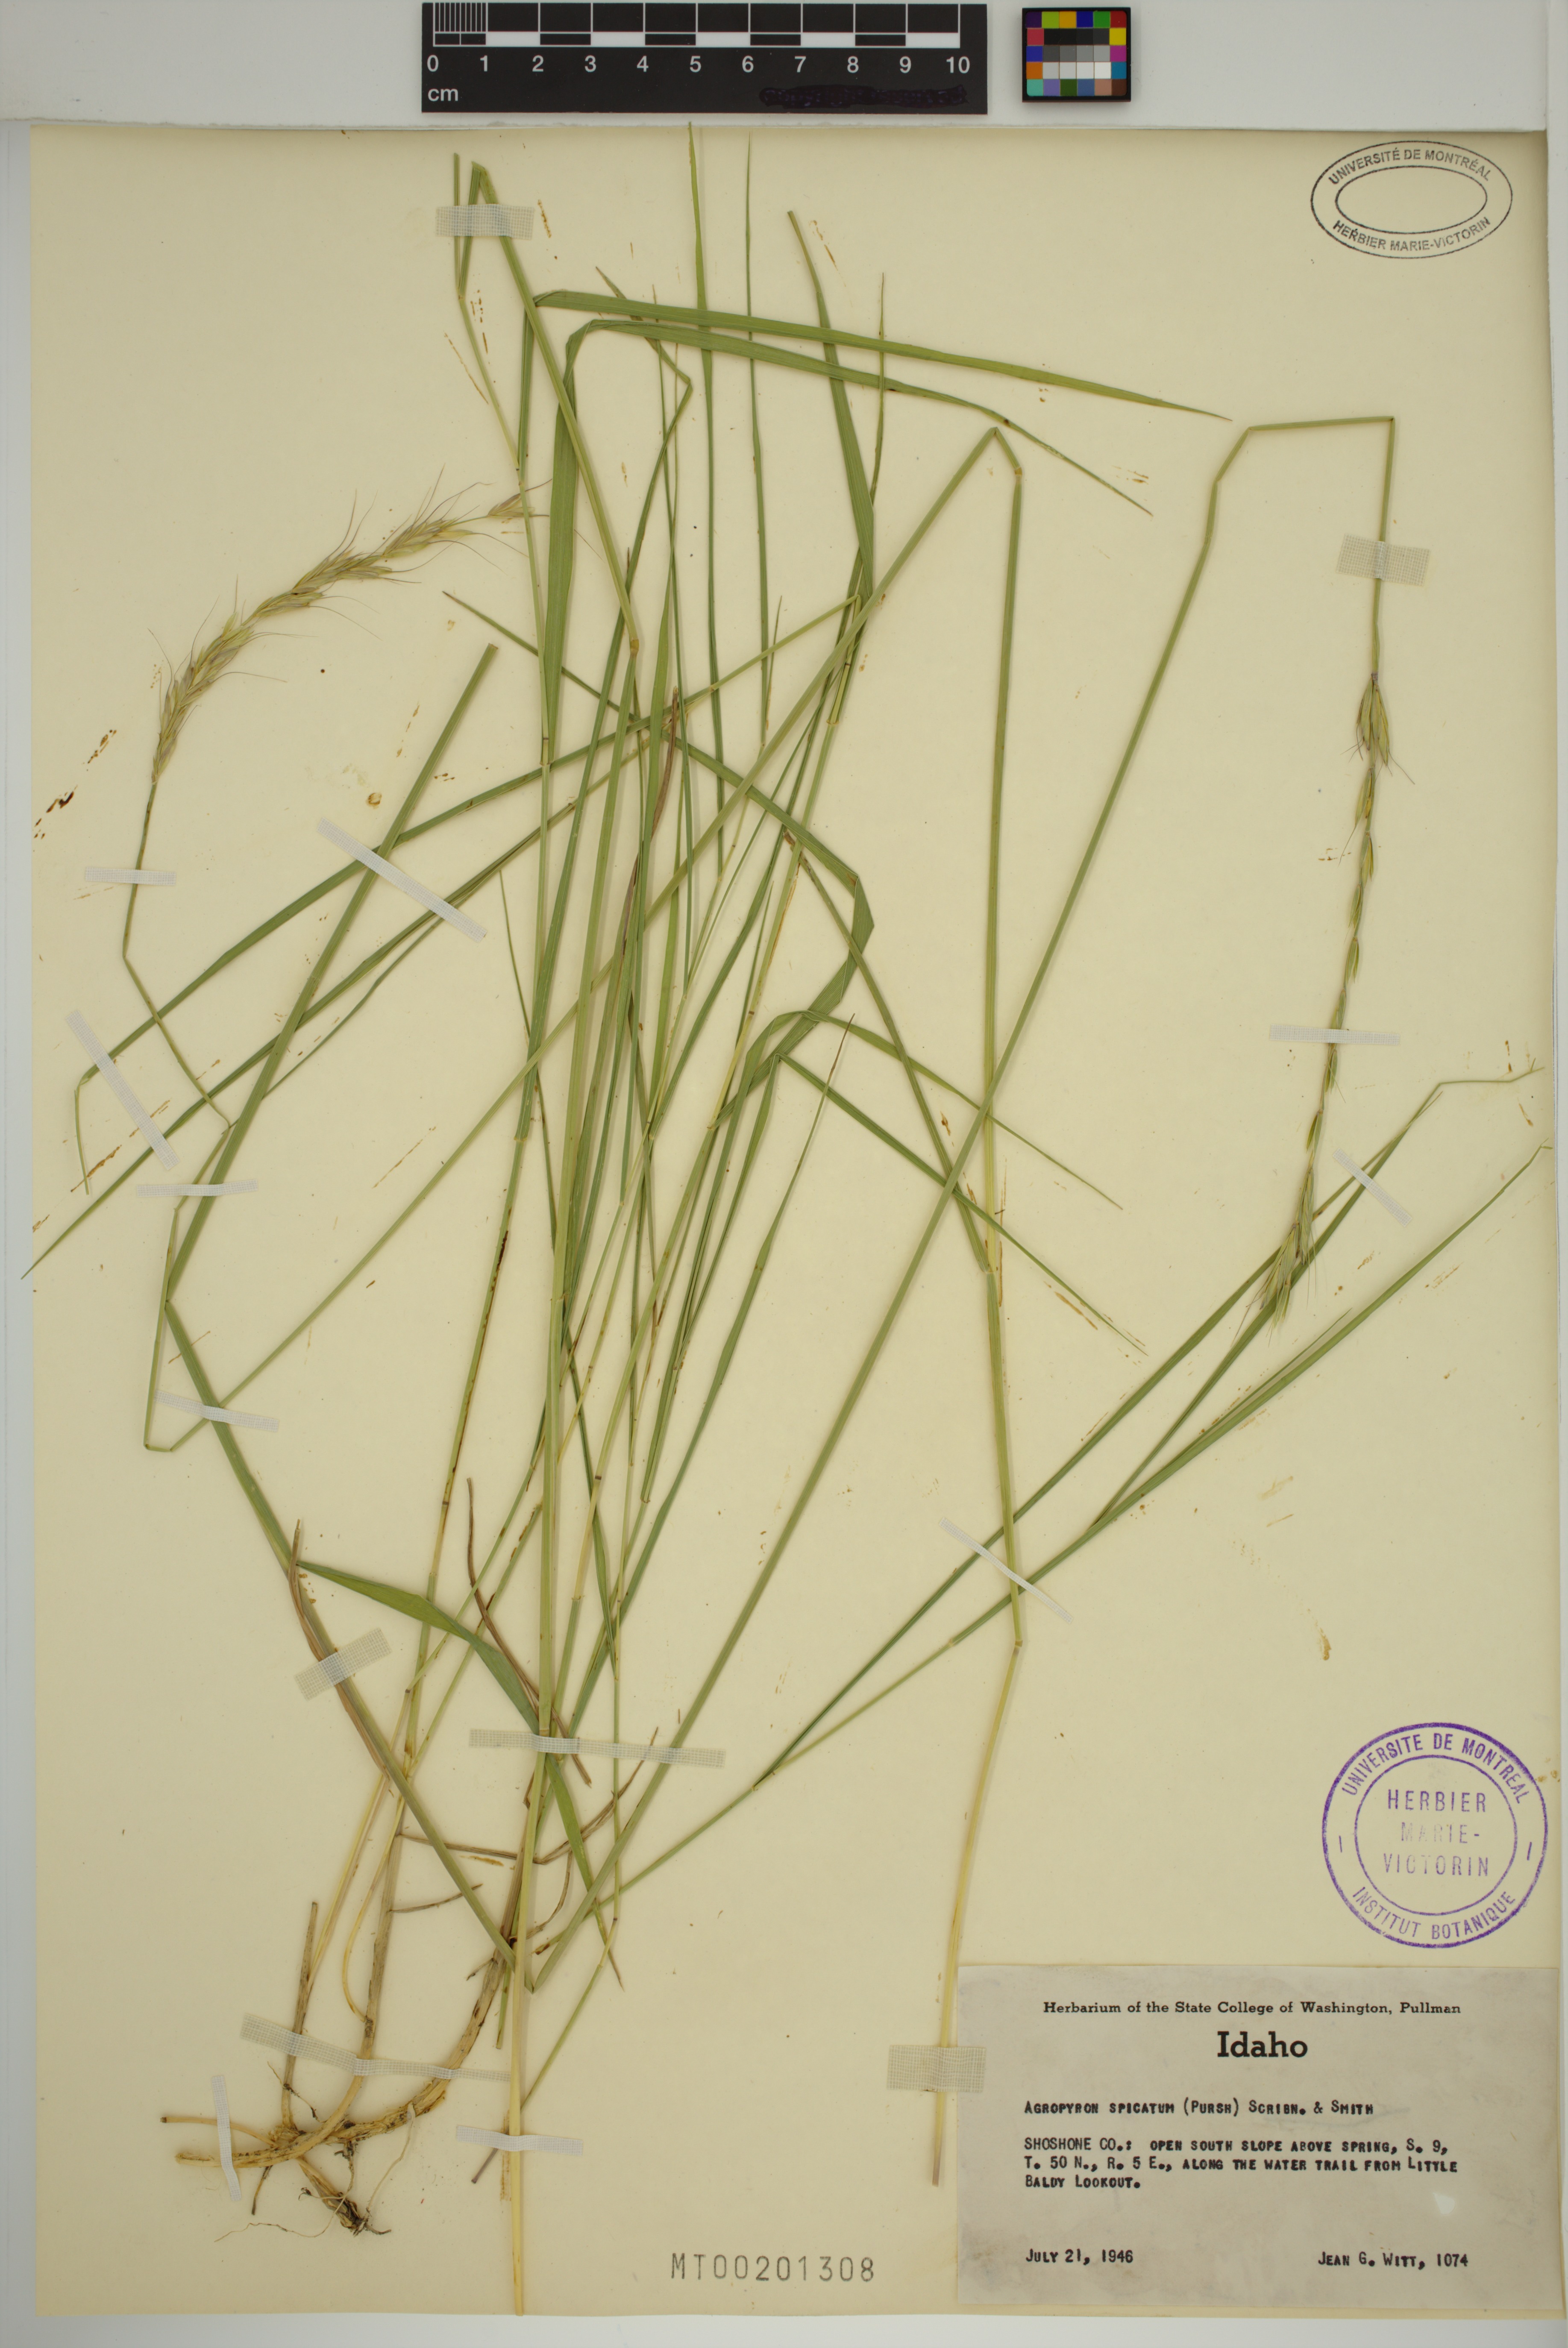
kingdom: Plantae
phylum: Tracheophyta
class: Liliopsida
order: Poales
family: Poaceae
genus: Pseudoroegneria
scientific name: Pseudoroegneria spicata
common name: Bluebunch wheatgrass
